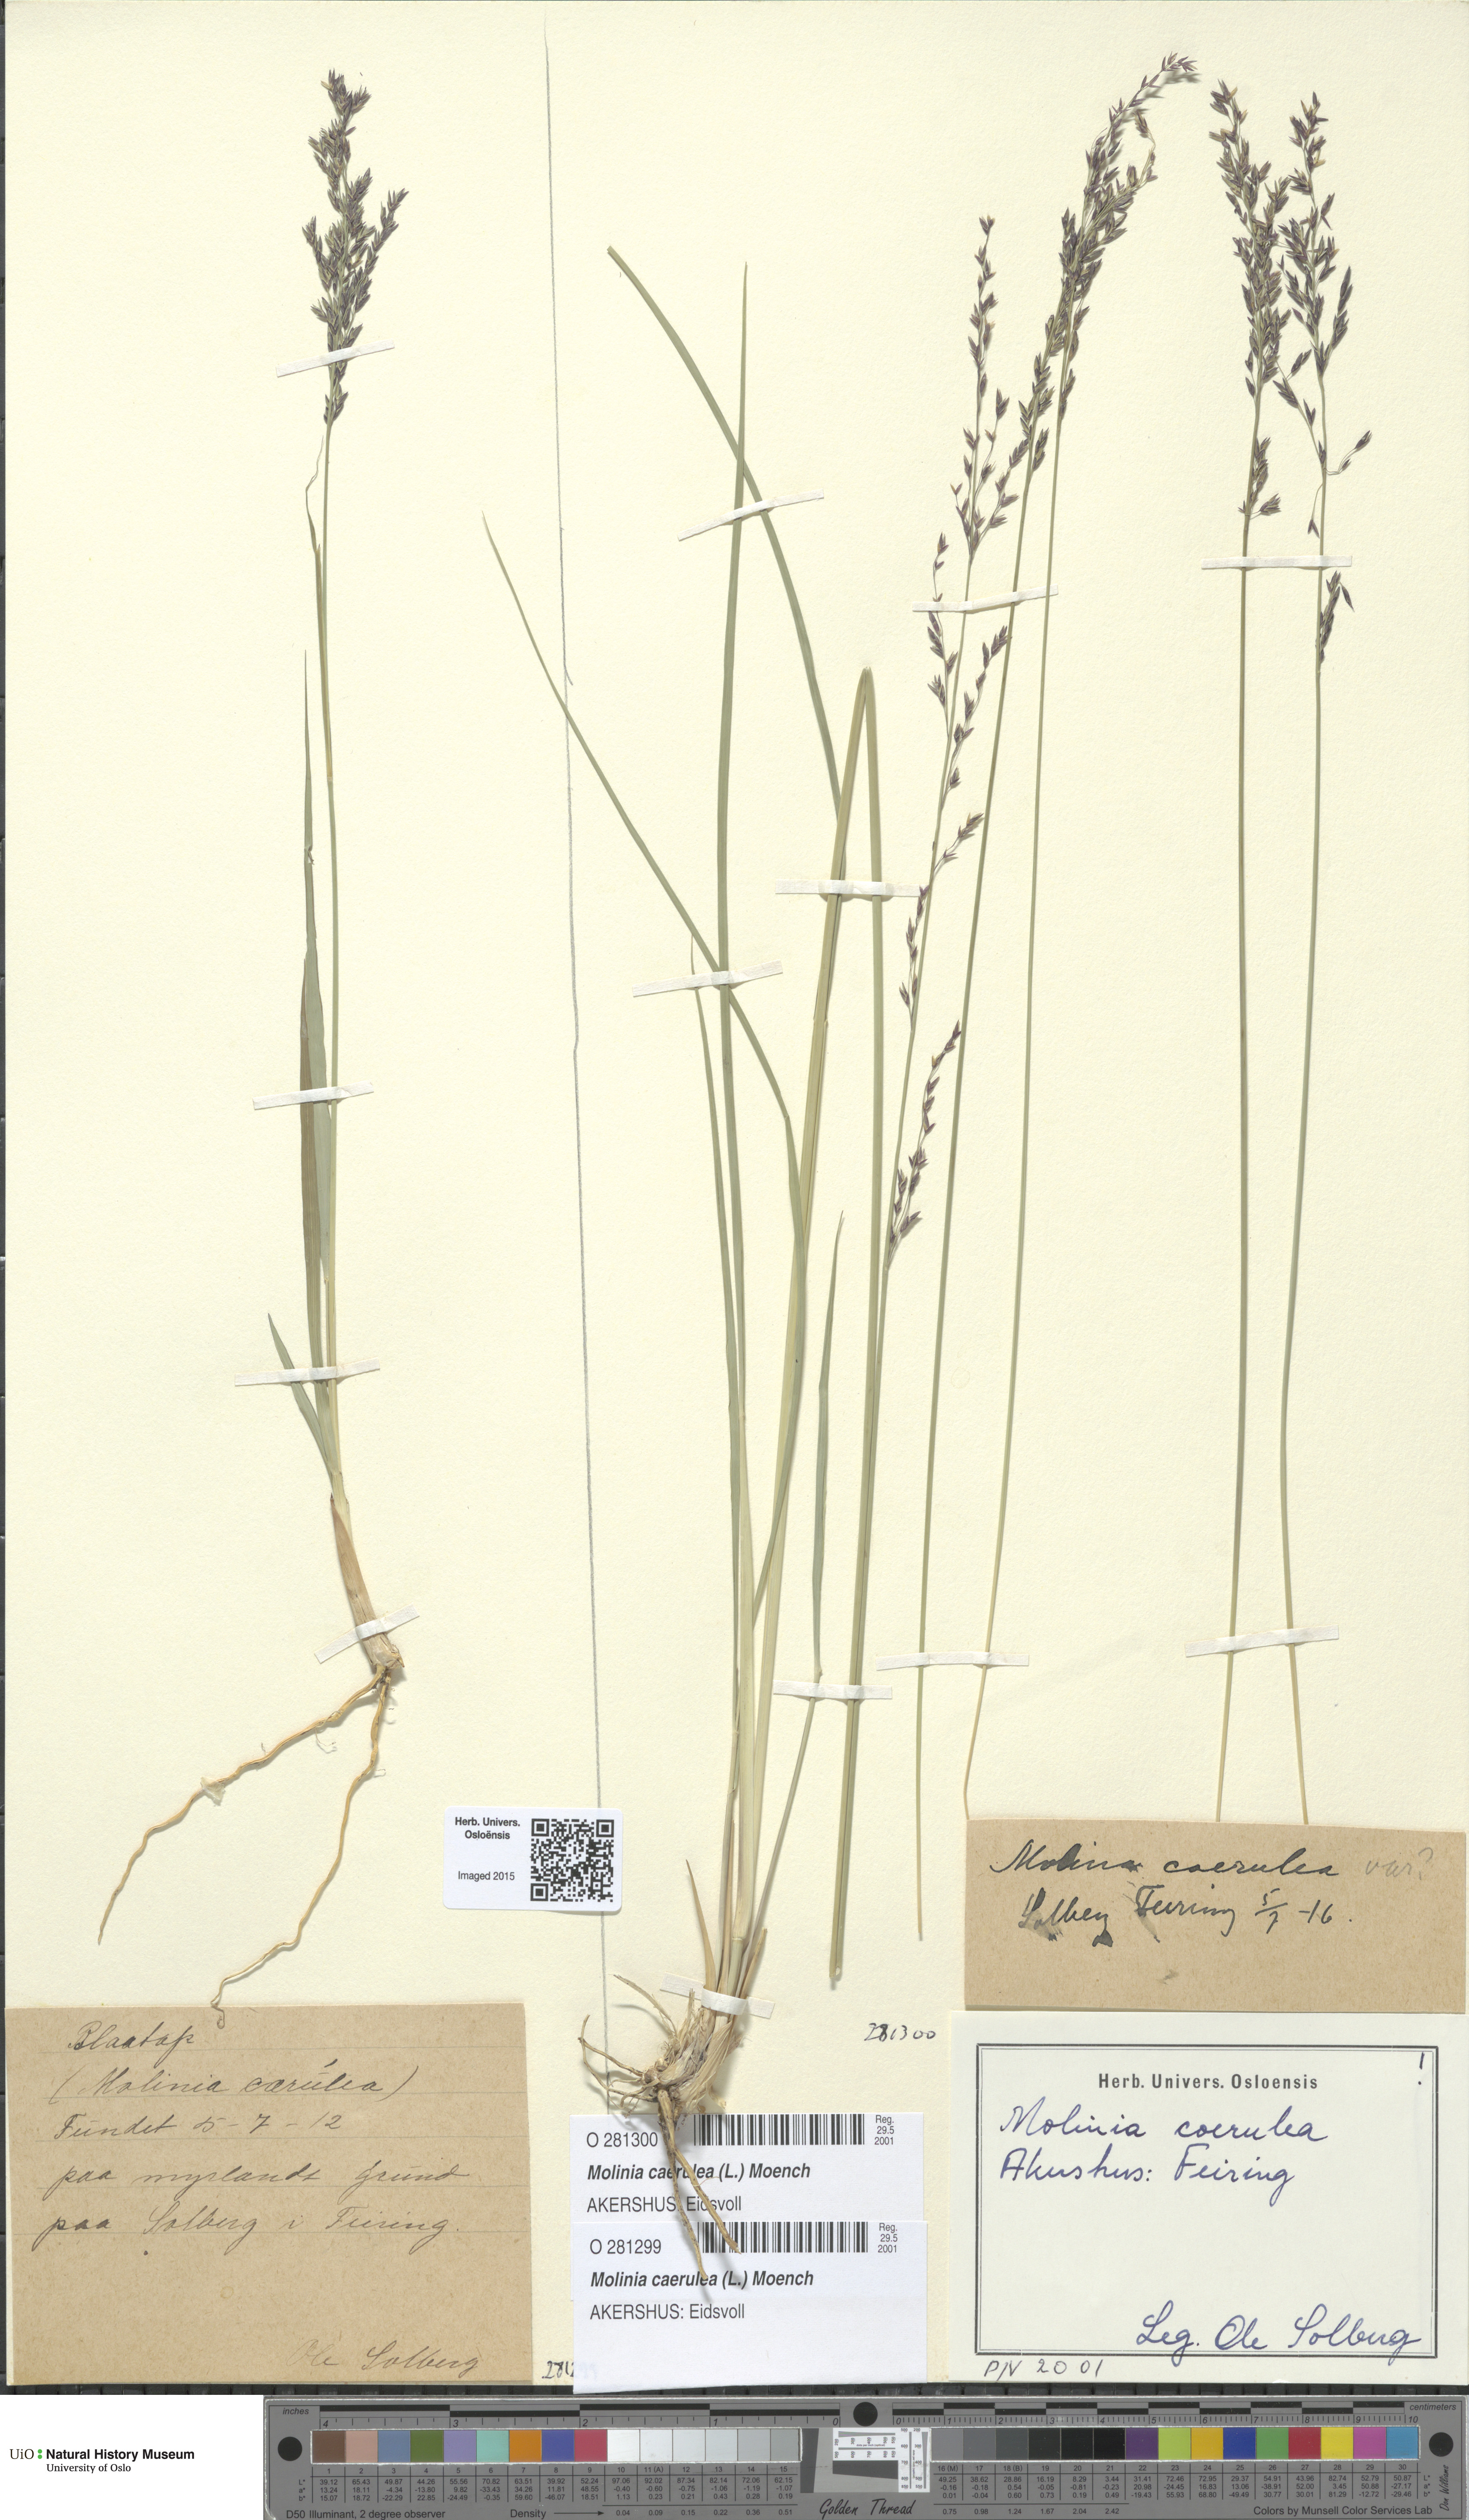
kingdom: Plantae
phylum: Tracheophyta
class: Liliopsida
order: Poales
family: Poaceae
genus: Molinia
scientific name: Molinia caerulea
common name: Purple moor-grass
